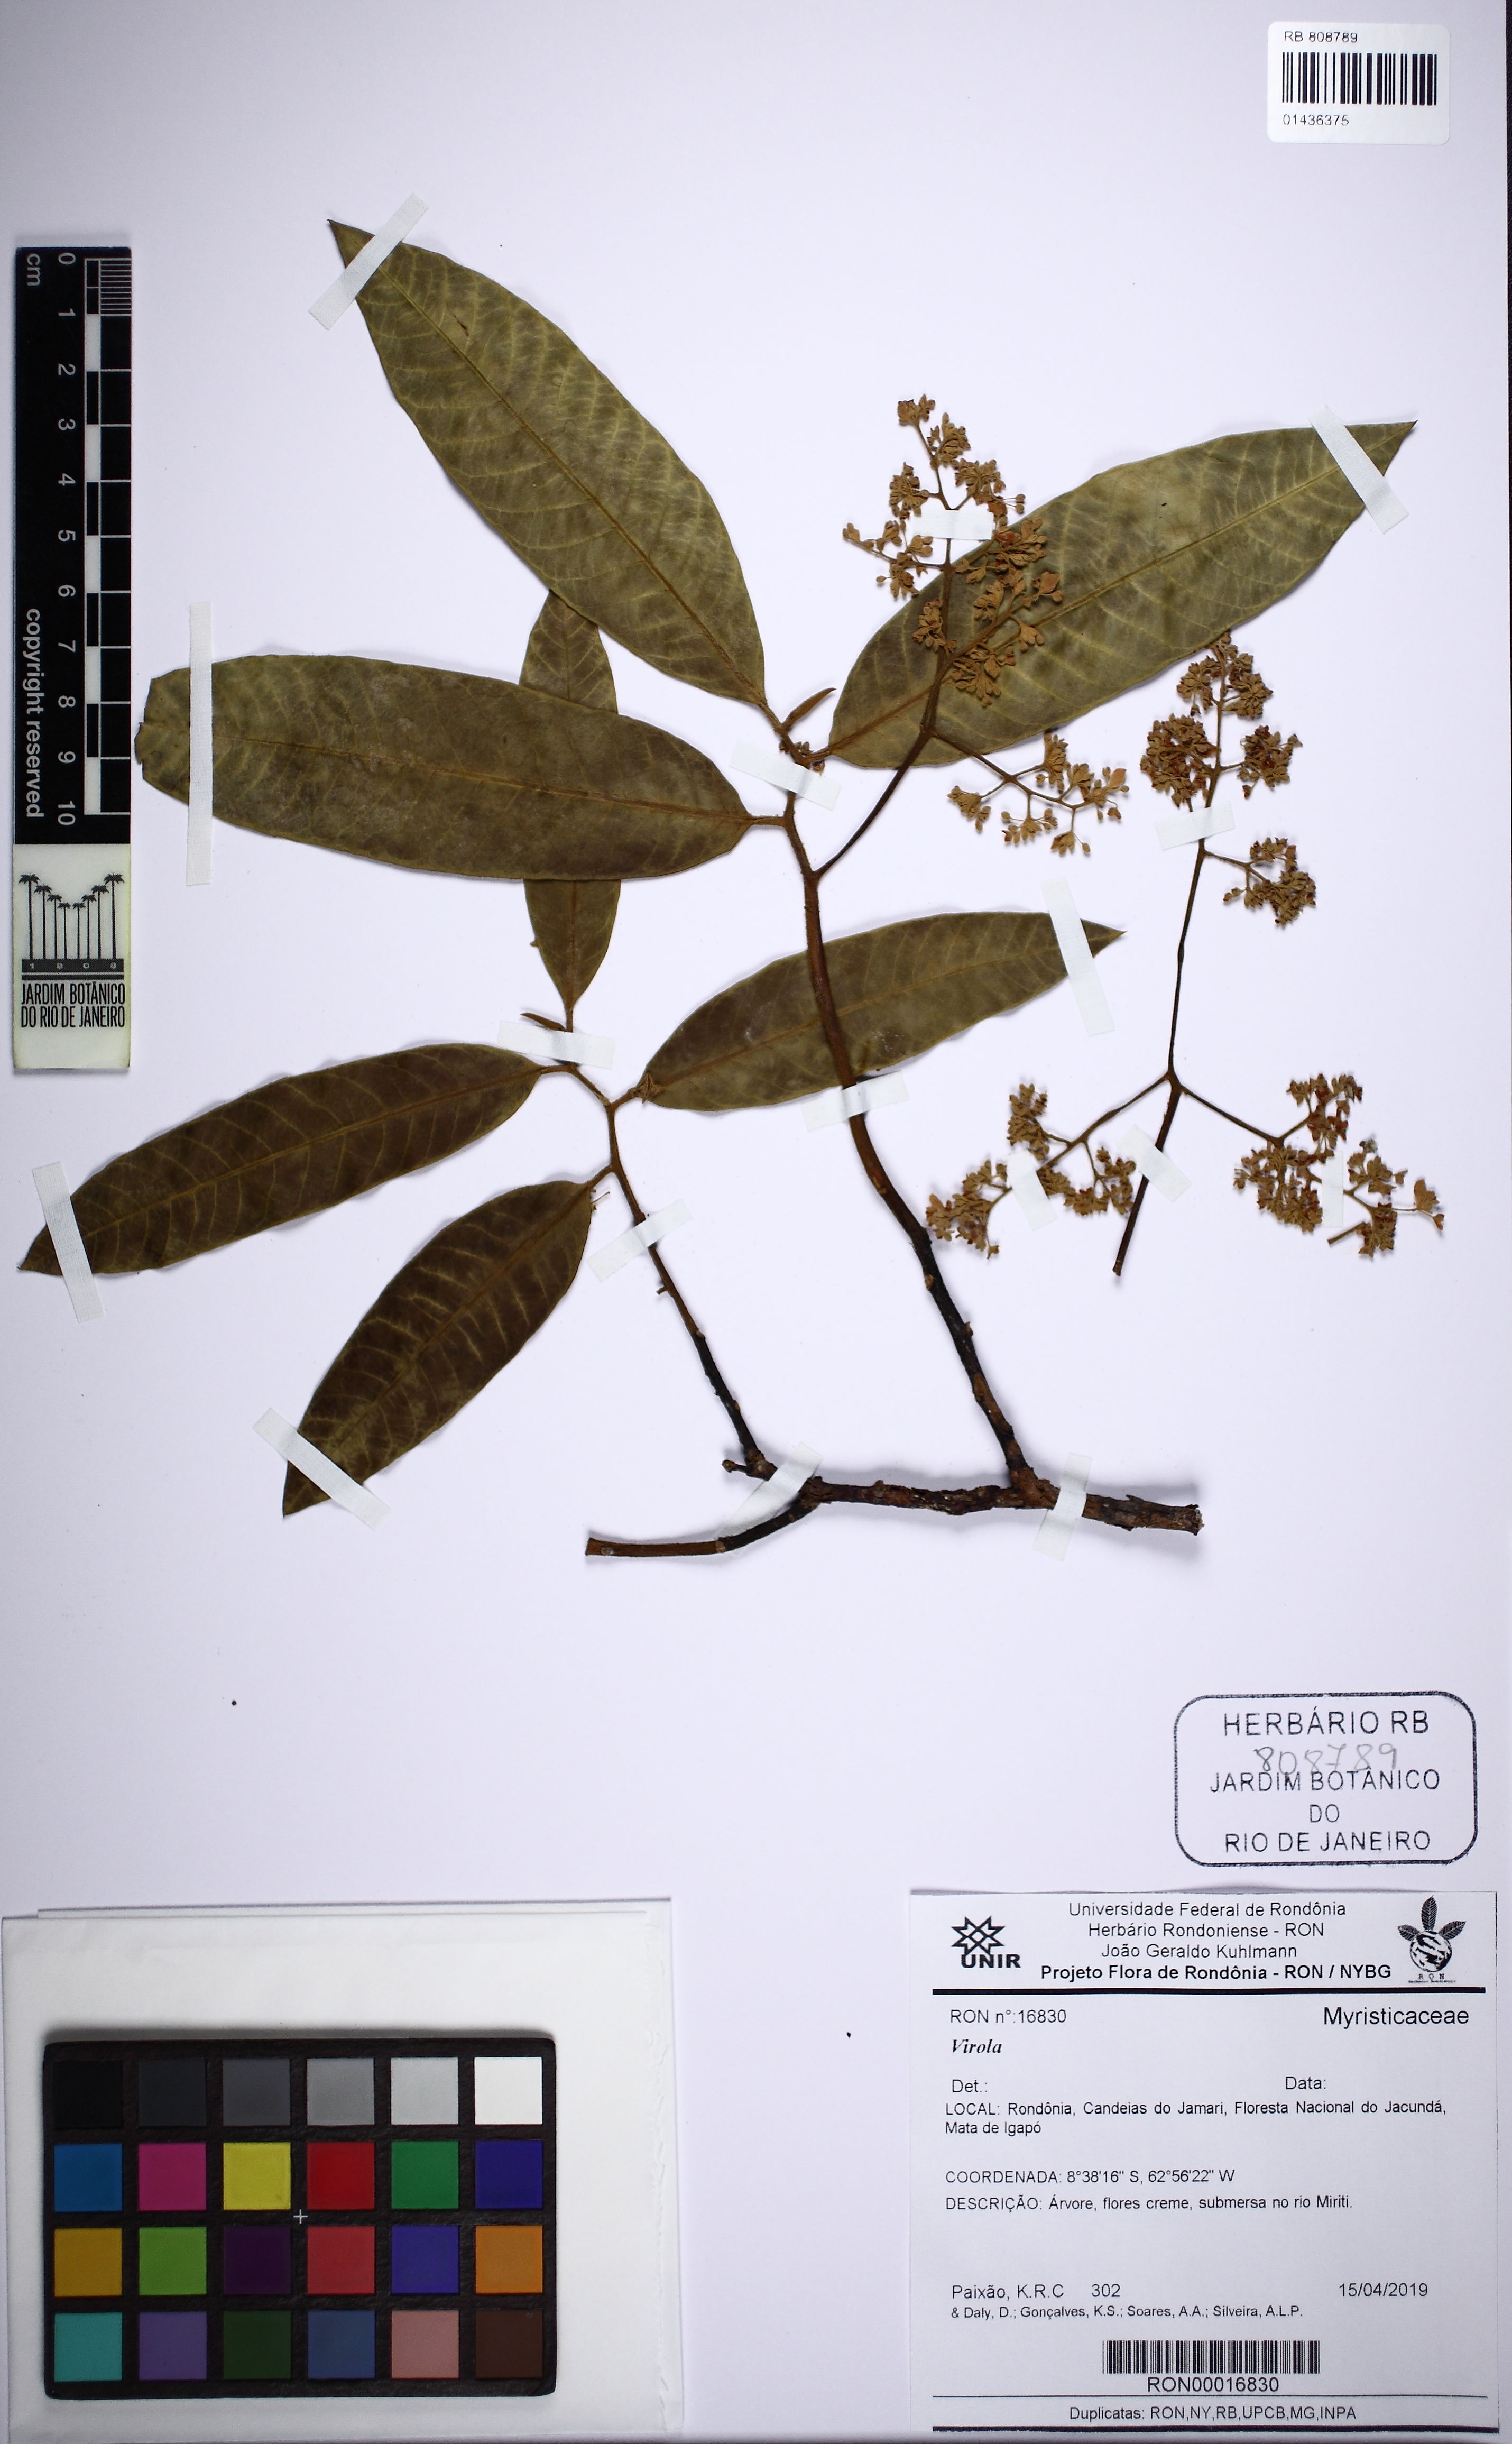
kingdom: Plantae
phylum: Tracheophyta
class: Magnoliopsida
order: Magnoliales
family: Myristicaceae
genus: Virola
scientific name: Virola
